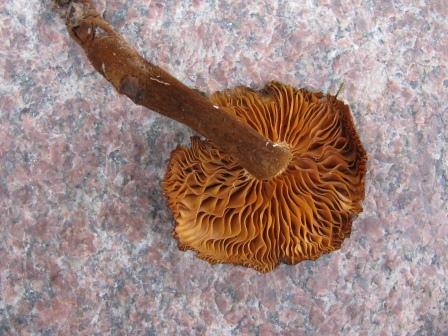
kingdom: Fungi
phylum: Basidiomycota
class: Agaricomycetes
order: Agaricales
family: Physalacriaceae
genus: Flammulina
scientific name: Flammulina elastica
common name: pile-fløjlsfod
